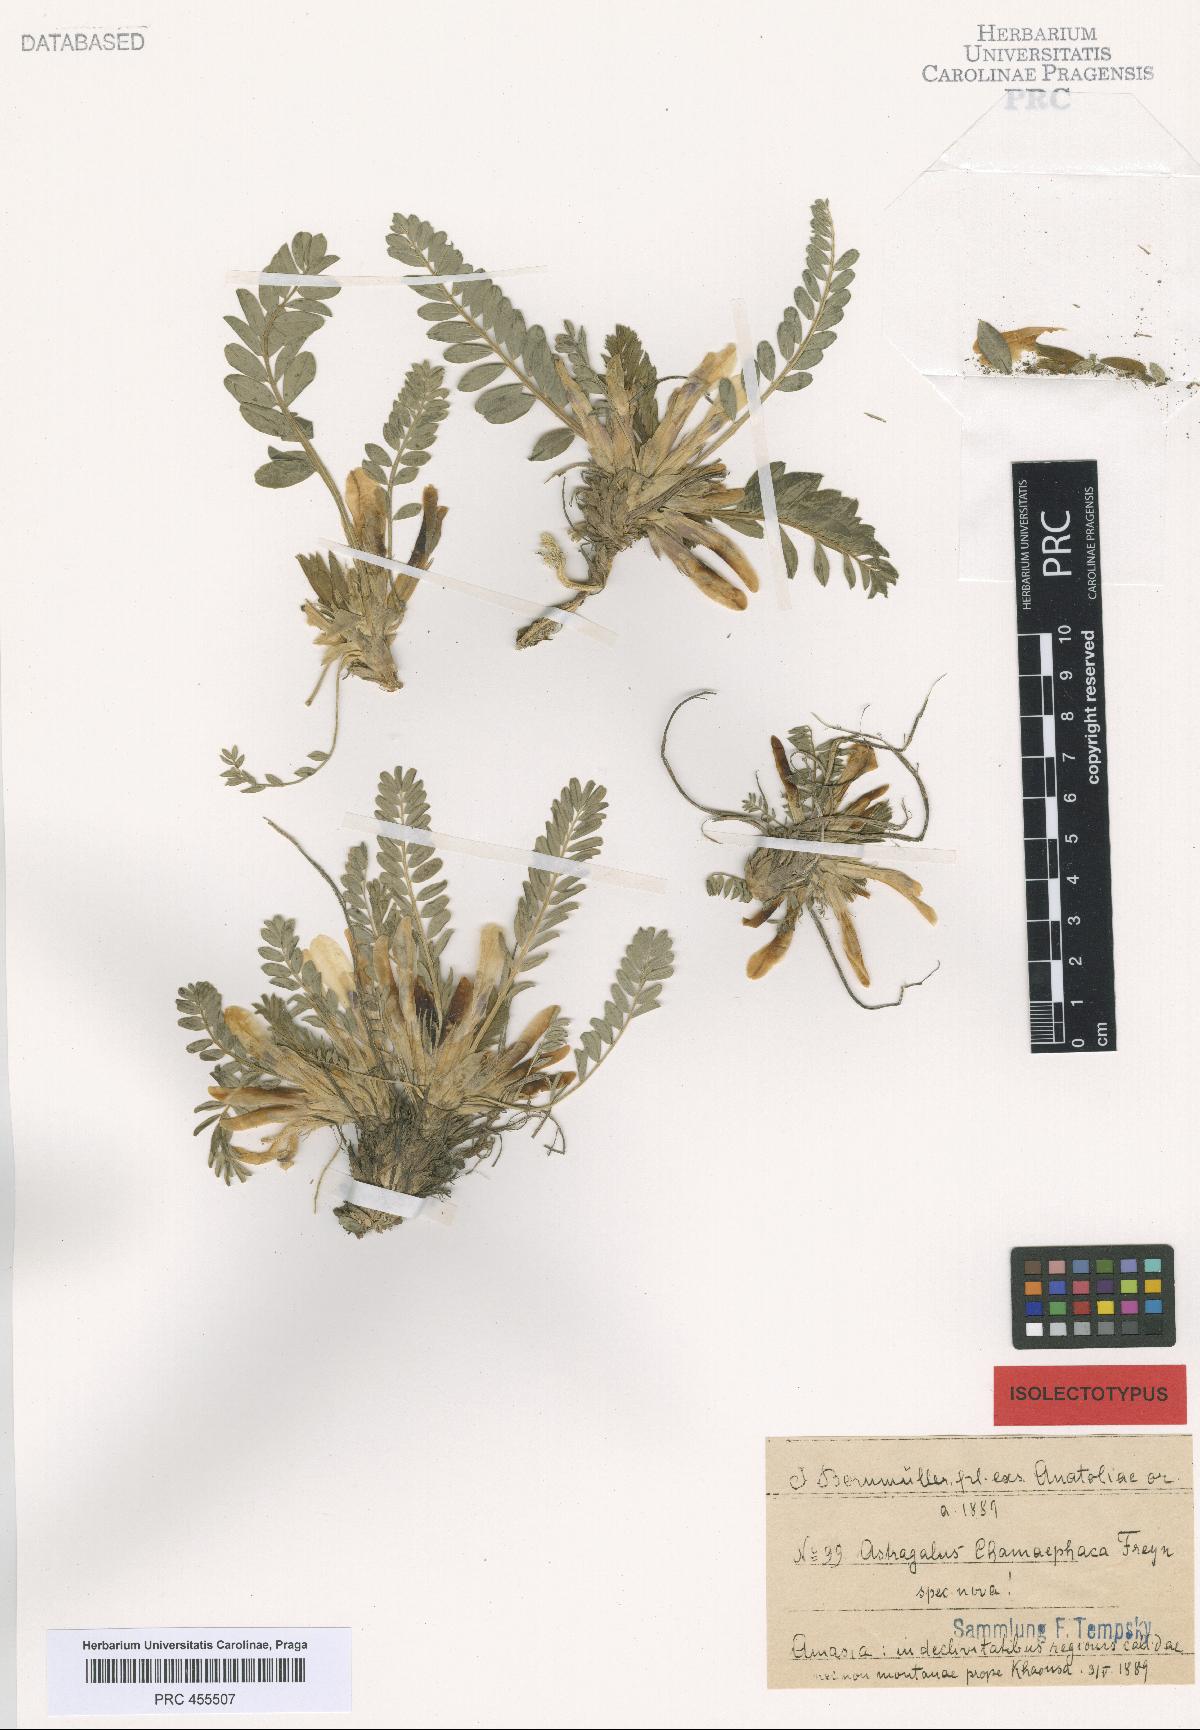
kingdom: Plantae
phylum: Tracheophyta
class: Magnoliopsida
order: Fabales
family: Fabaceae
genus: Astragalus
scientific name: Astragalus chamaephaca
